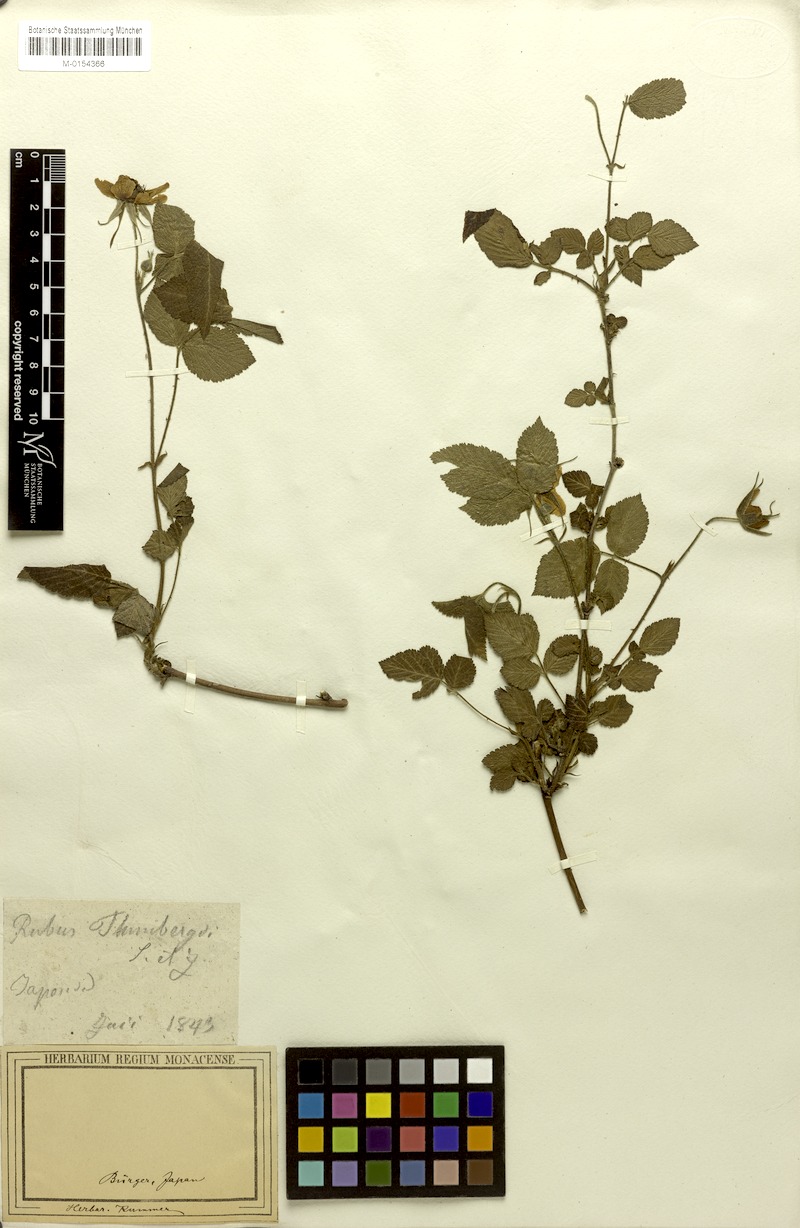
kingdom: Plantae
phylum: Tracheophyta
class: Magnoliopsida
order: Rosales
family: Rosaceae
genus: Rubus
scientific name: Rubus hirsutus
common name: Hirsute raspberry
